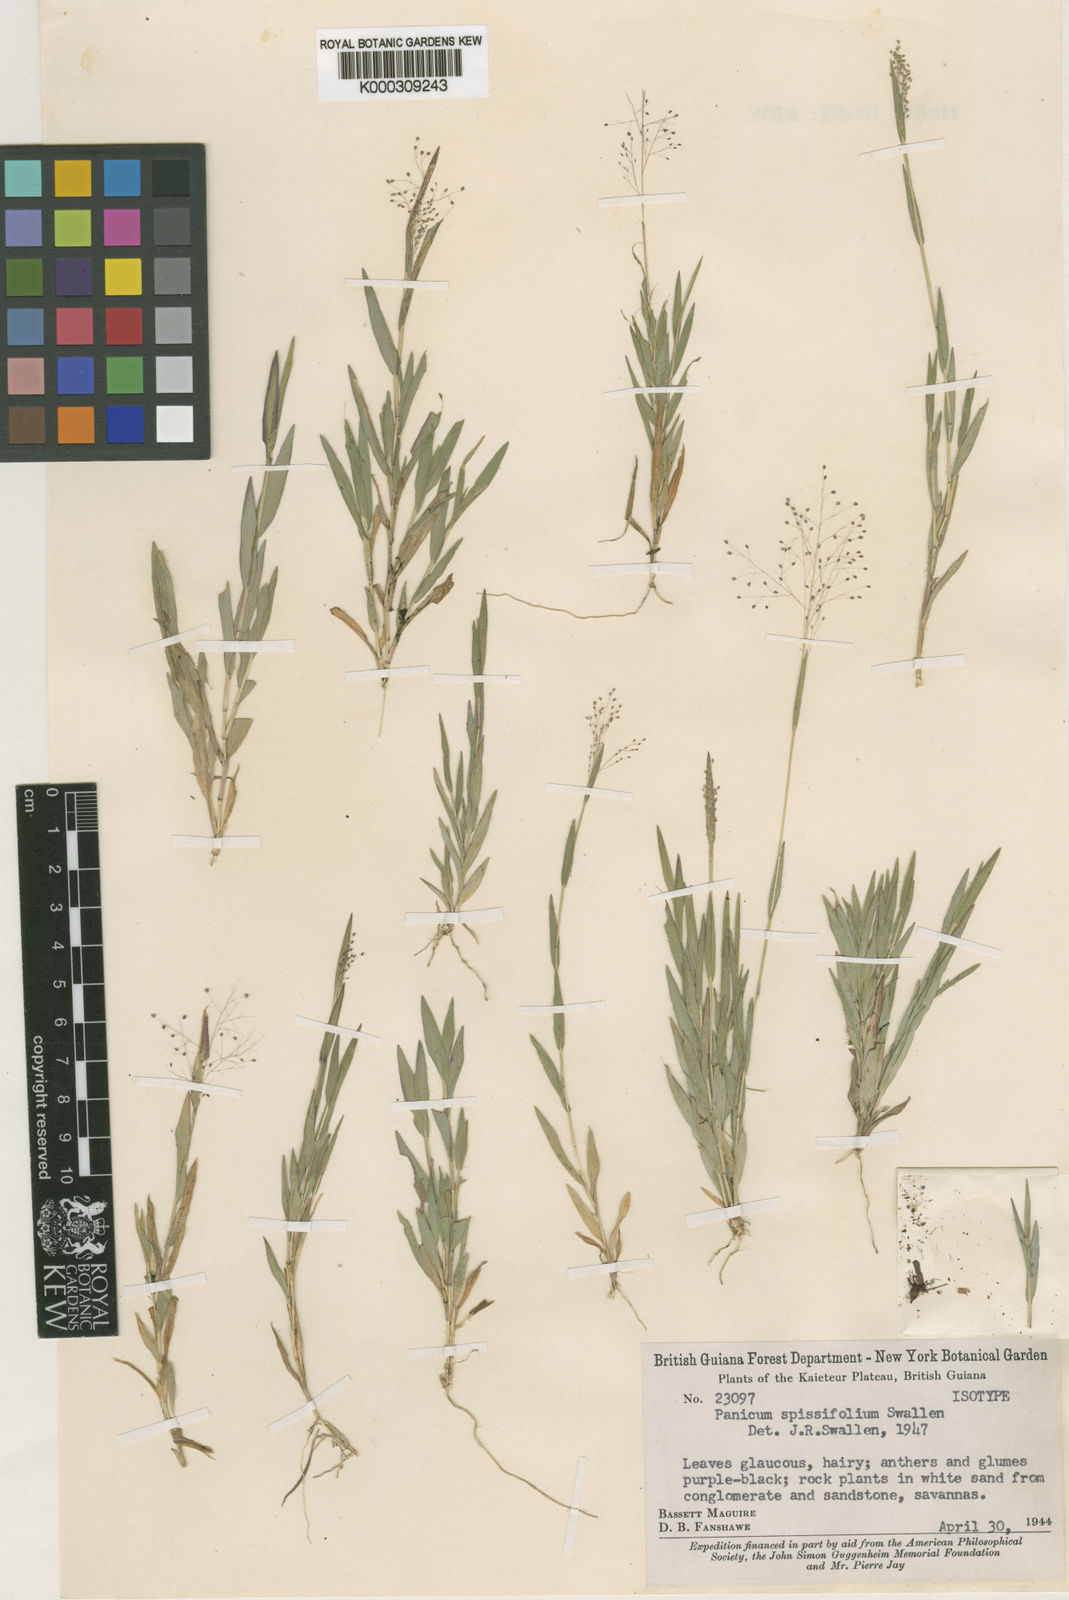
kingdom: Plantae
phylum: Tracheophyta
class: Liliopsida
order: Poales
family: Poaceae
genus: Panicum
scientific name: Panicum
